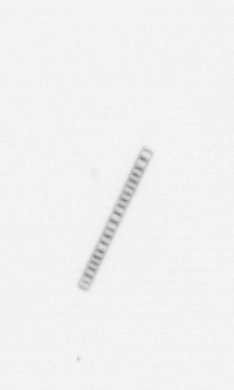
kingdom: Chromista
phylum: Ochrophyta
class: Bacillariophyceae
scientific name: Bacillariophyceae
